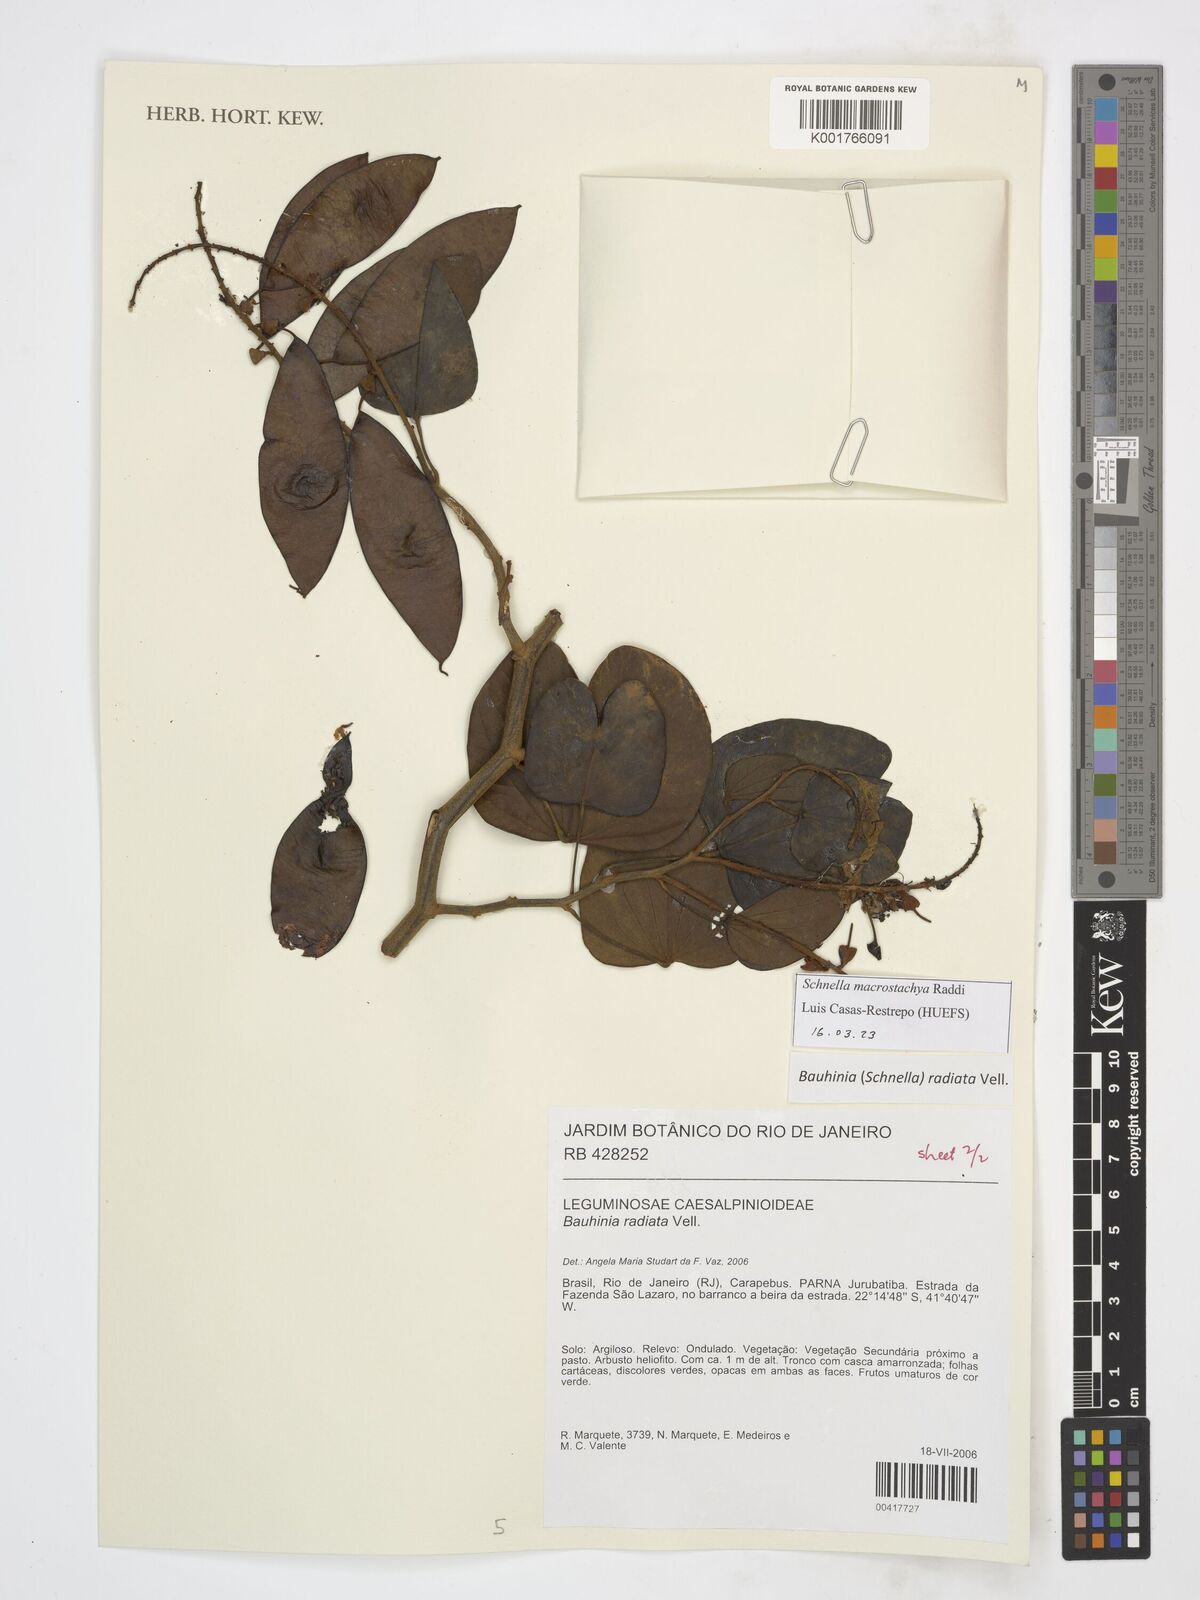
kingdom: Plantae
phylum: Tracheophyta
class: Magnoliopsida
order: Fabales
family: Fabaceae
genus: Schnella
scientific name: Schnella macrostachya
